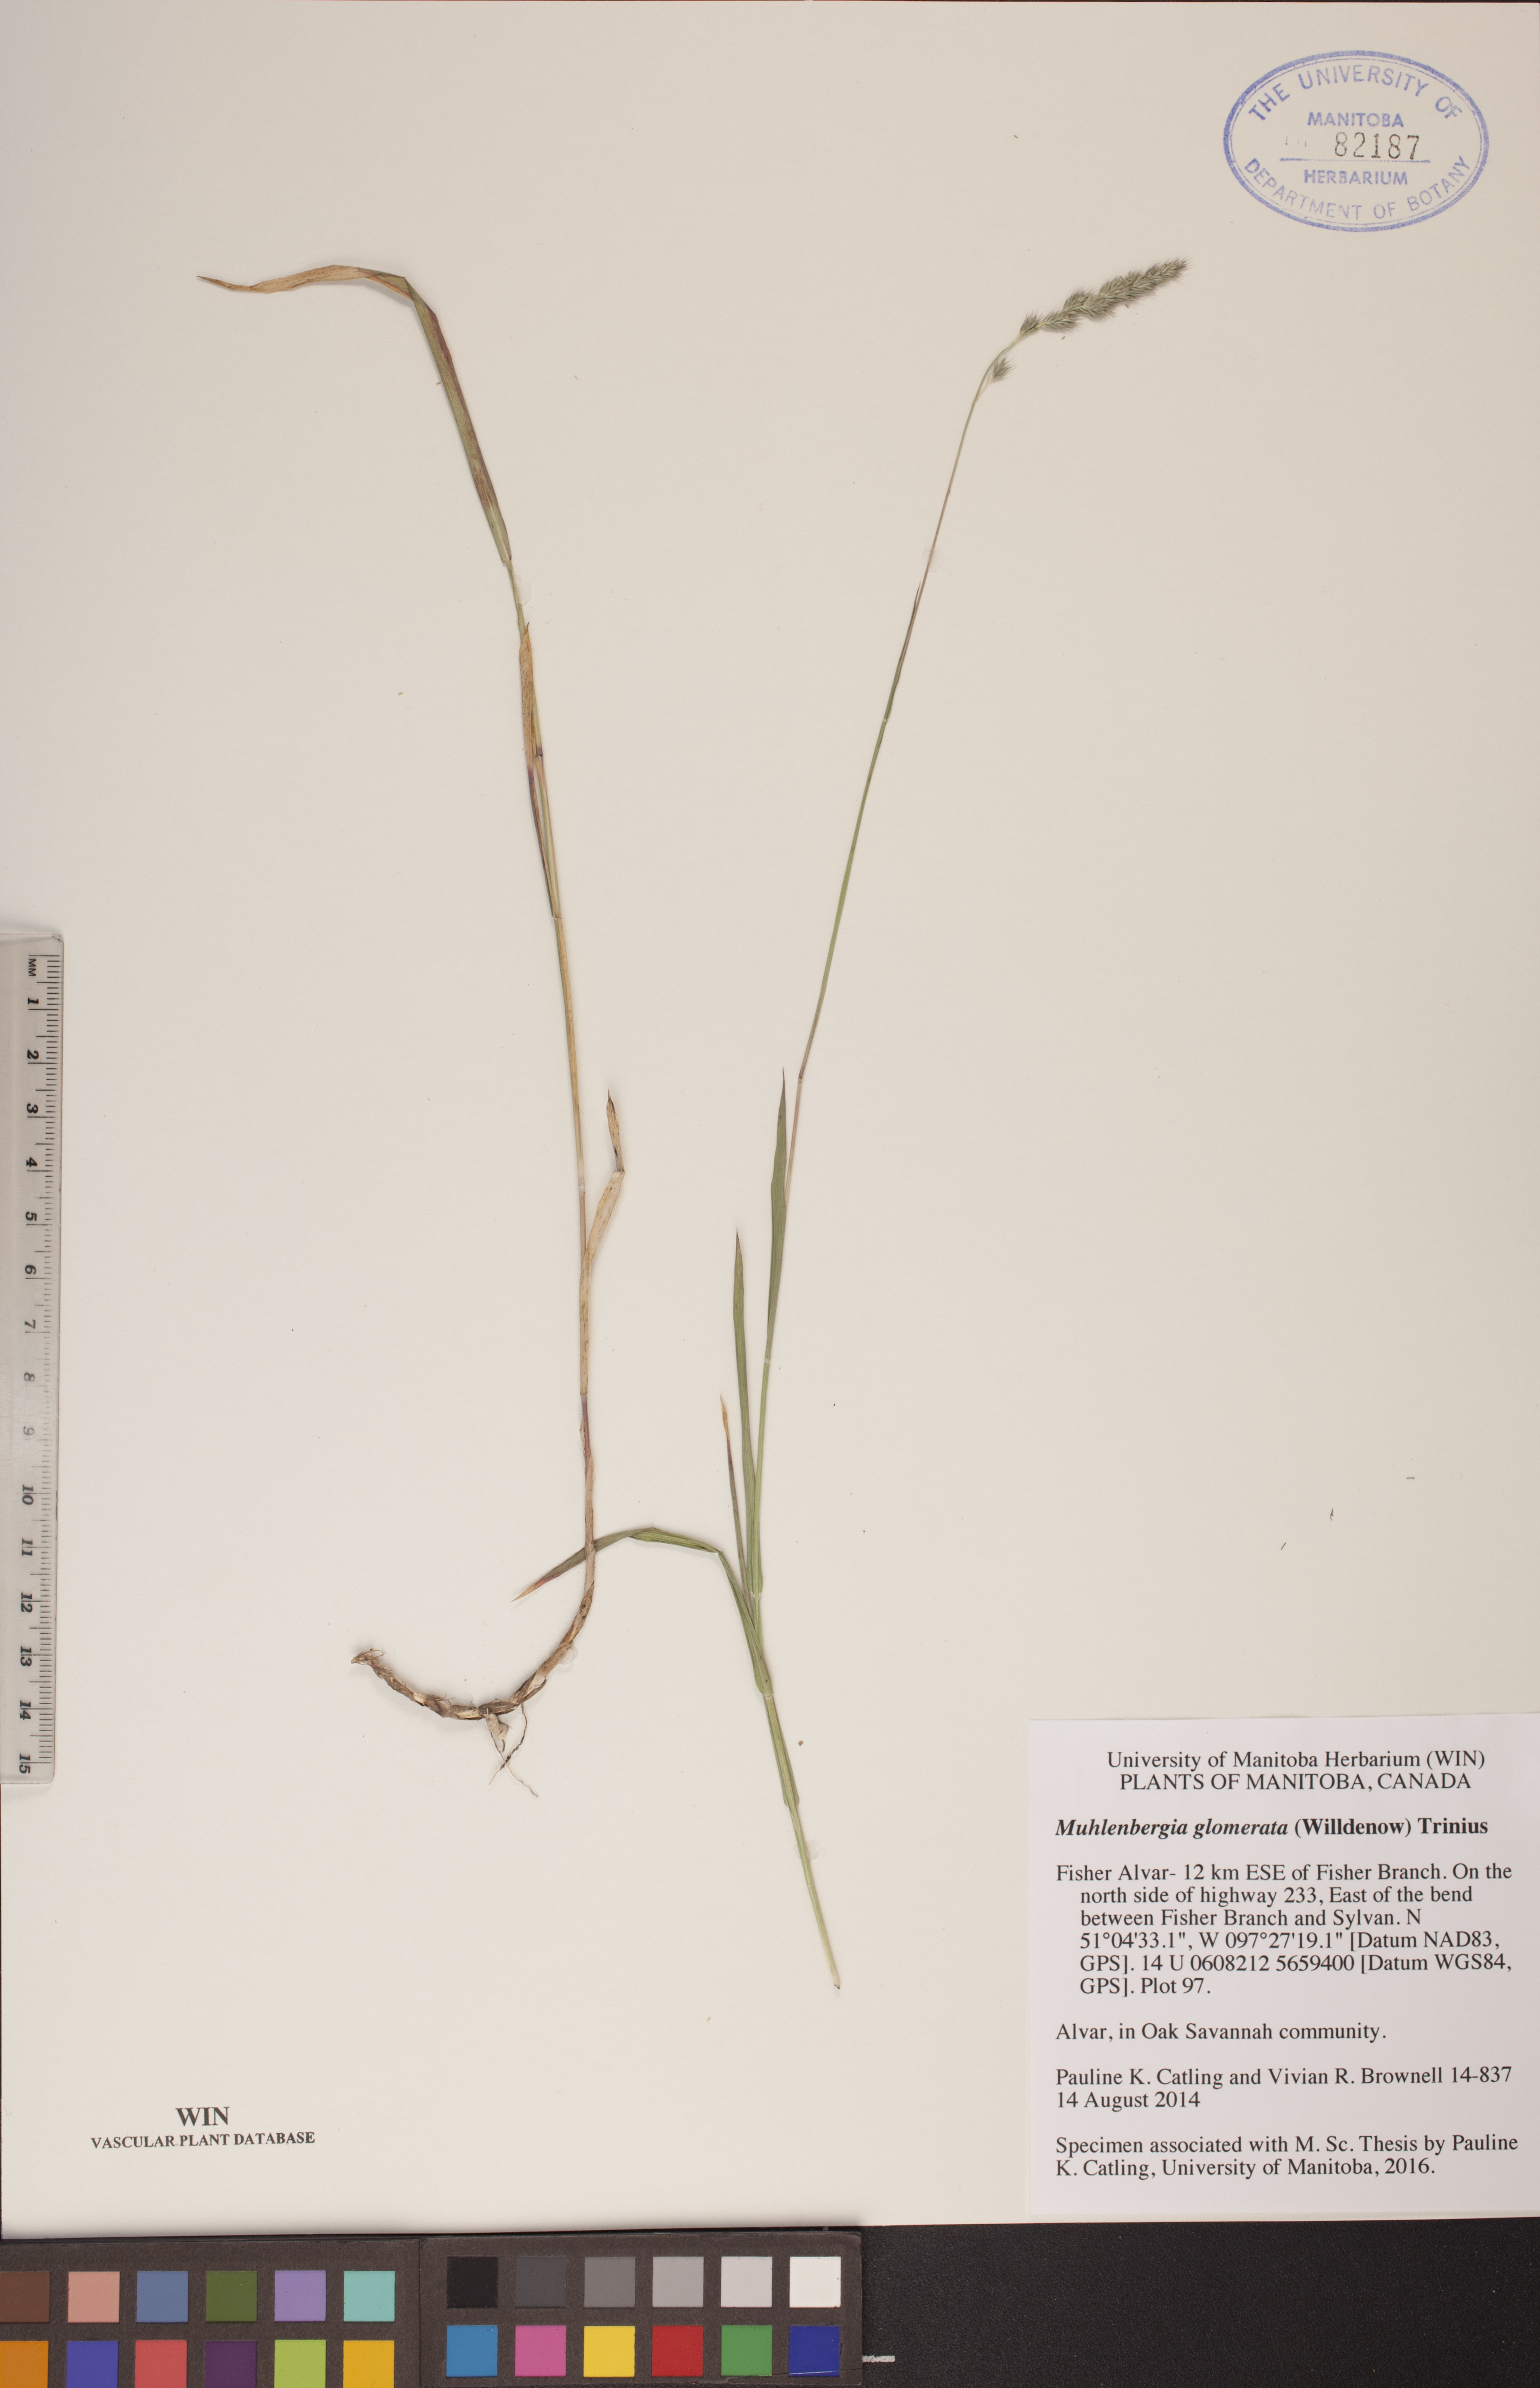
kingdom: Plantae
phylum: Tracheophyta
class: Liliopsida
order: Poales
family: Poaceae
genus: Muhlenbergia
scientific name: Muhlenbergia glomerata
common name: Bog muhly
